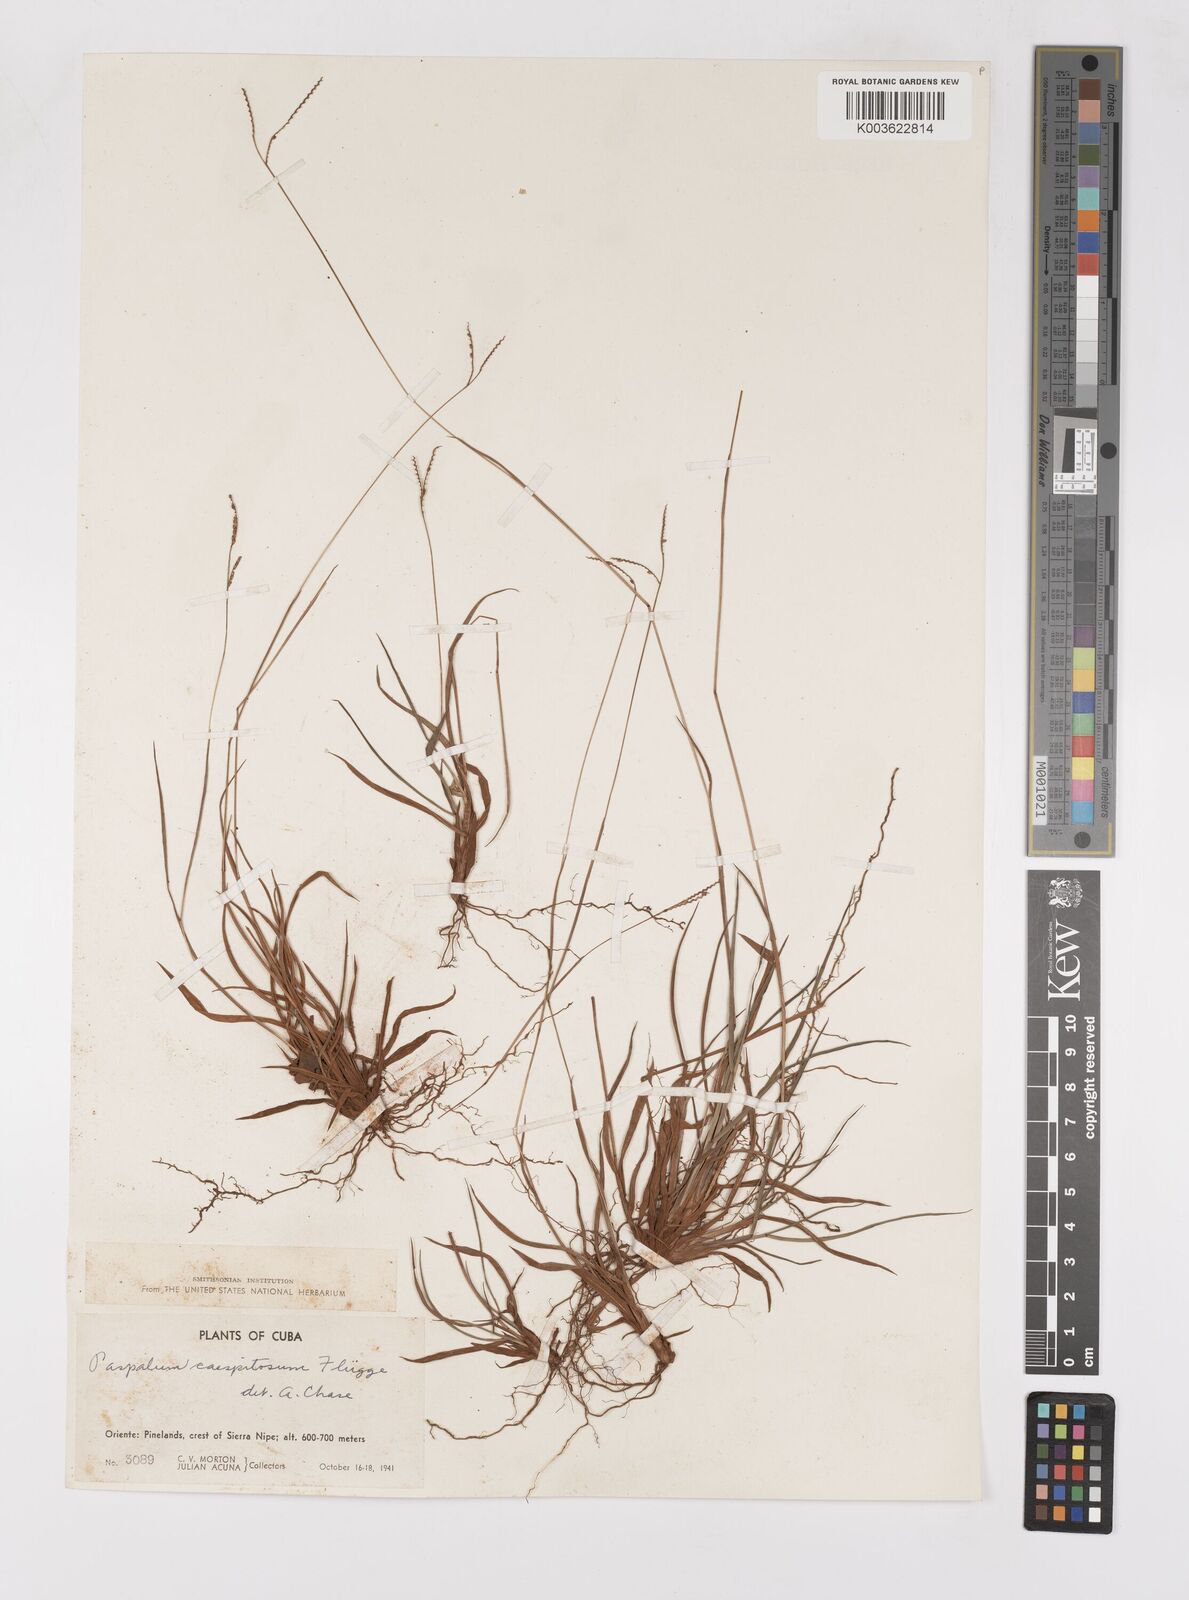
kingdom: Plantae
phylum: Tracheophyta
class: Liliopsida
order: Poales
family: Poaceae
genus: Paspalum
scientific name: Paspalum caespitosum
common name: Blue crowngrass
